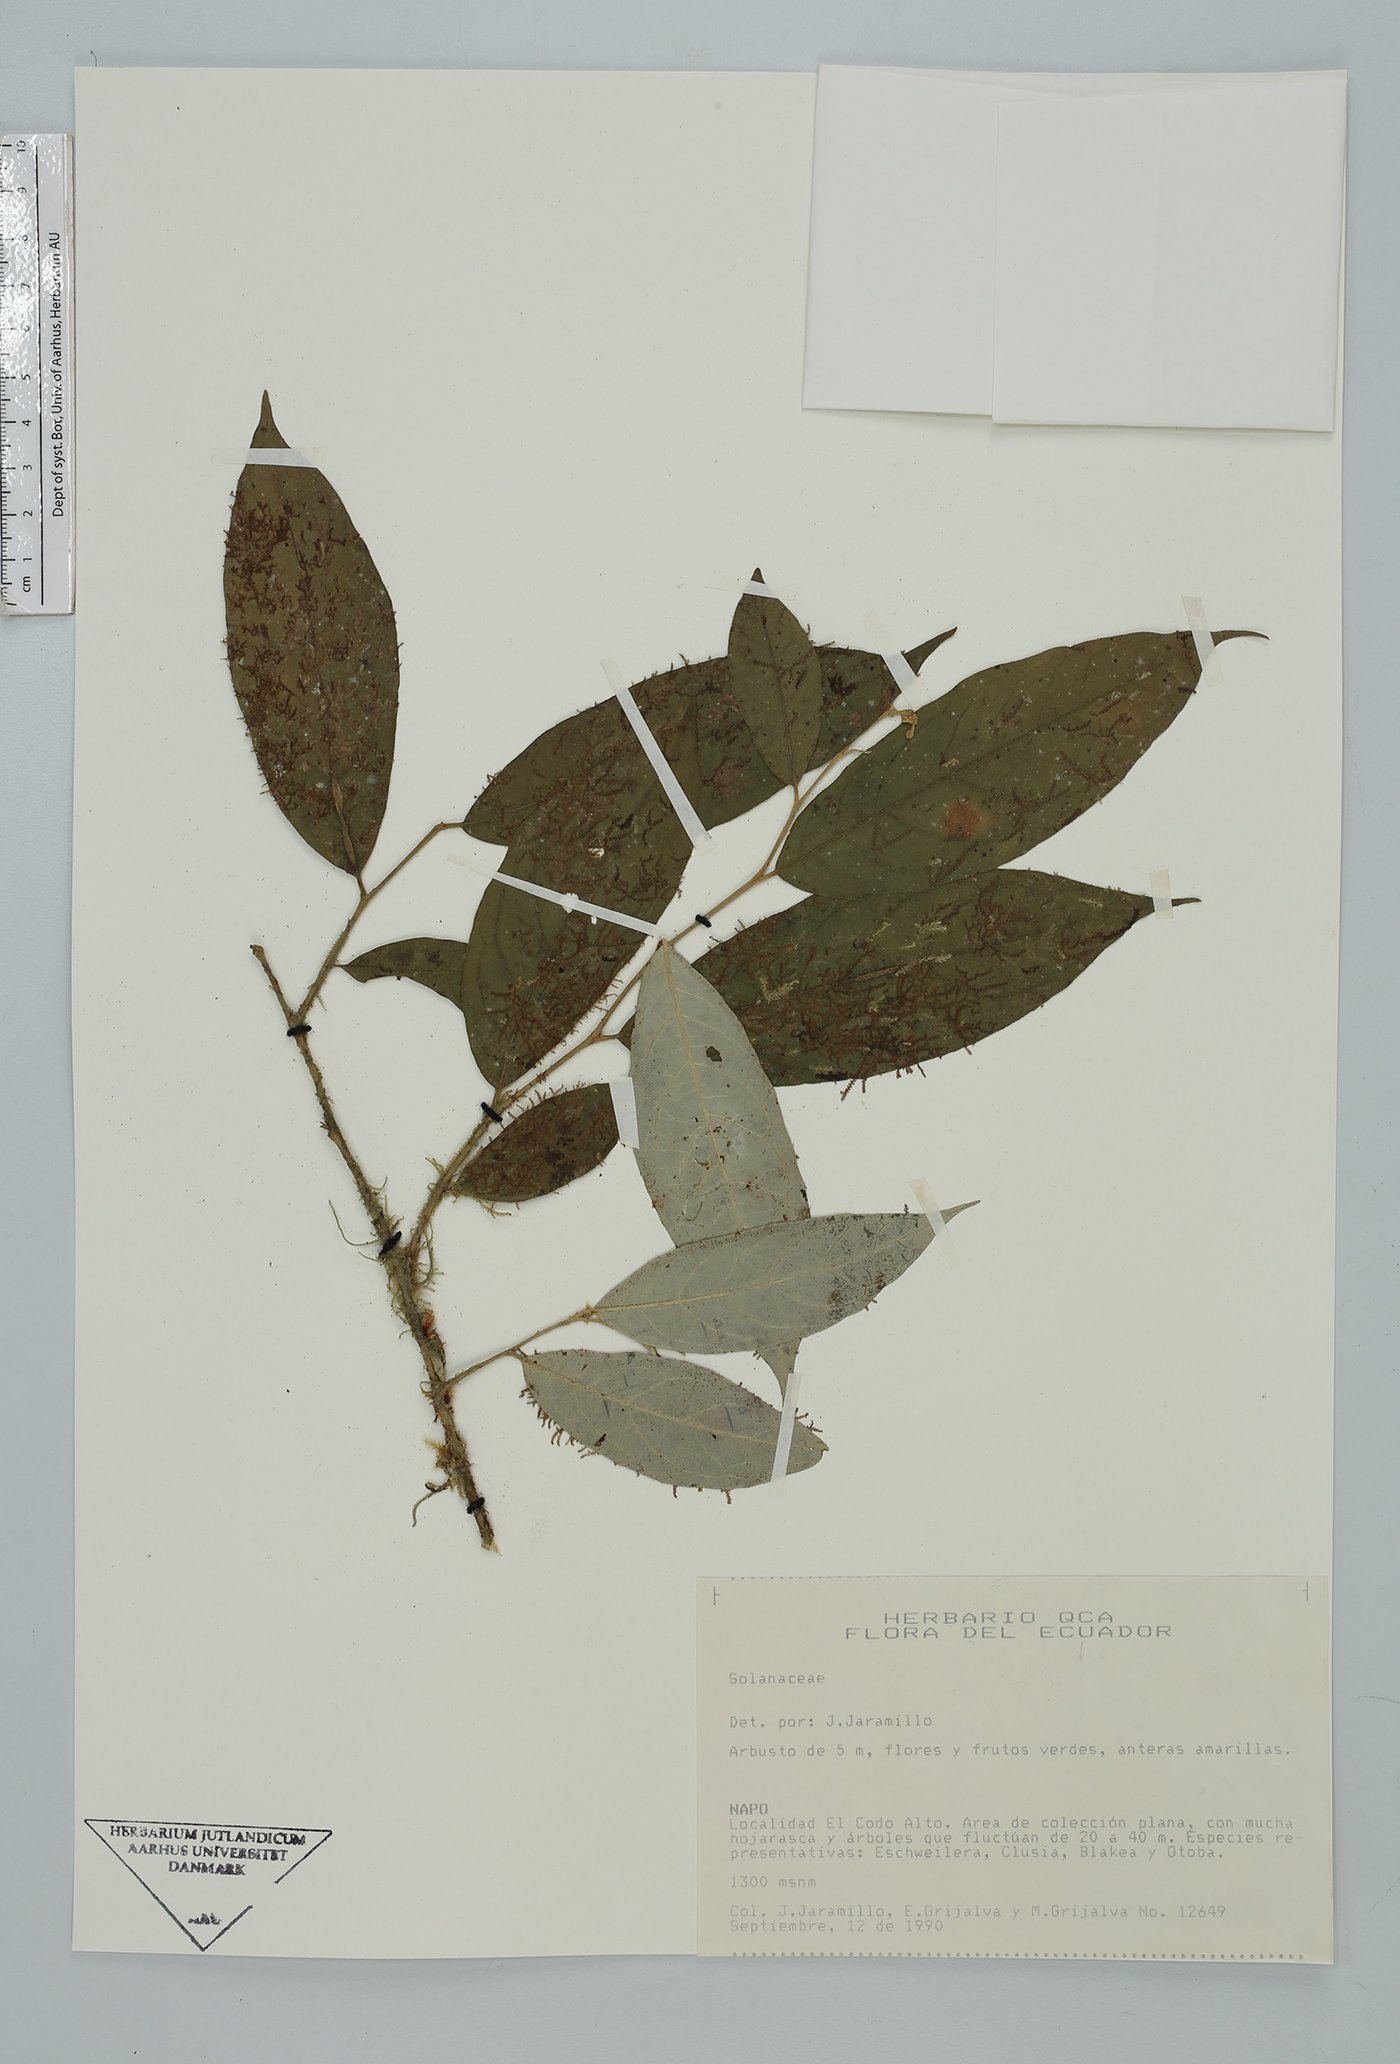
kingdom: Plantae
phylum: Tracheophyta
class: Magnoliopsida
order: Solanales
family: Solanaceae
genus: Solanum
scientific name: Solanum
